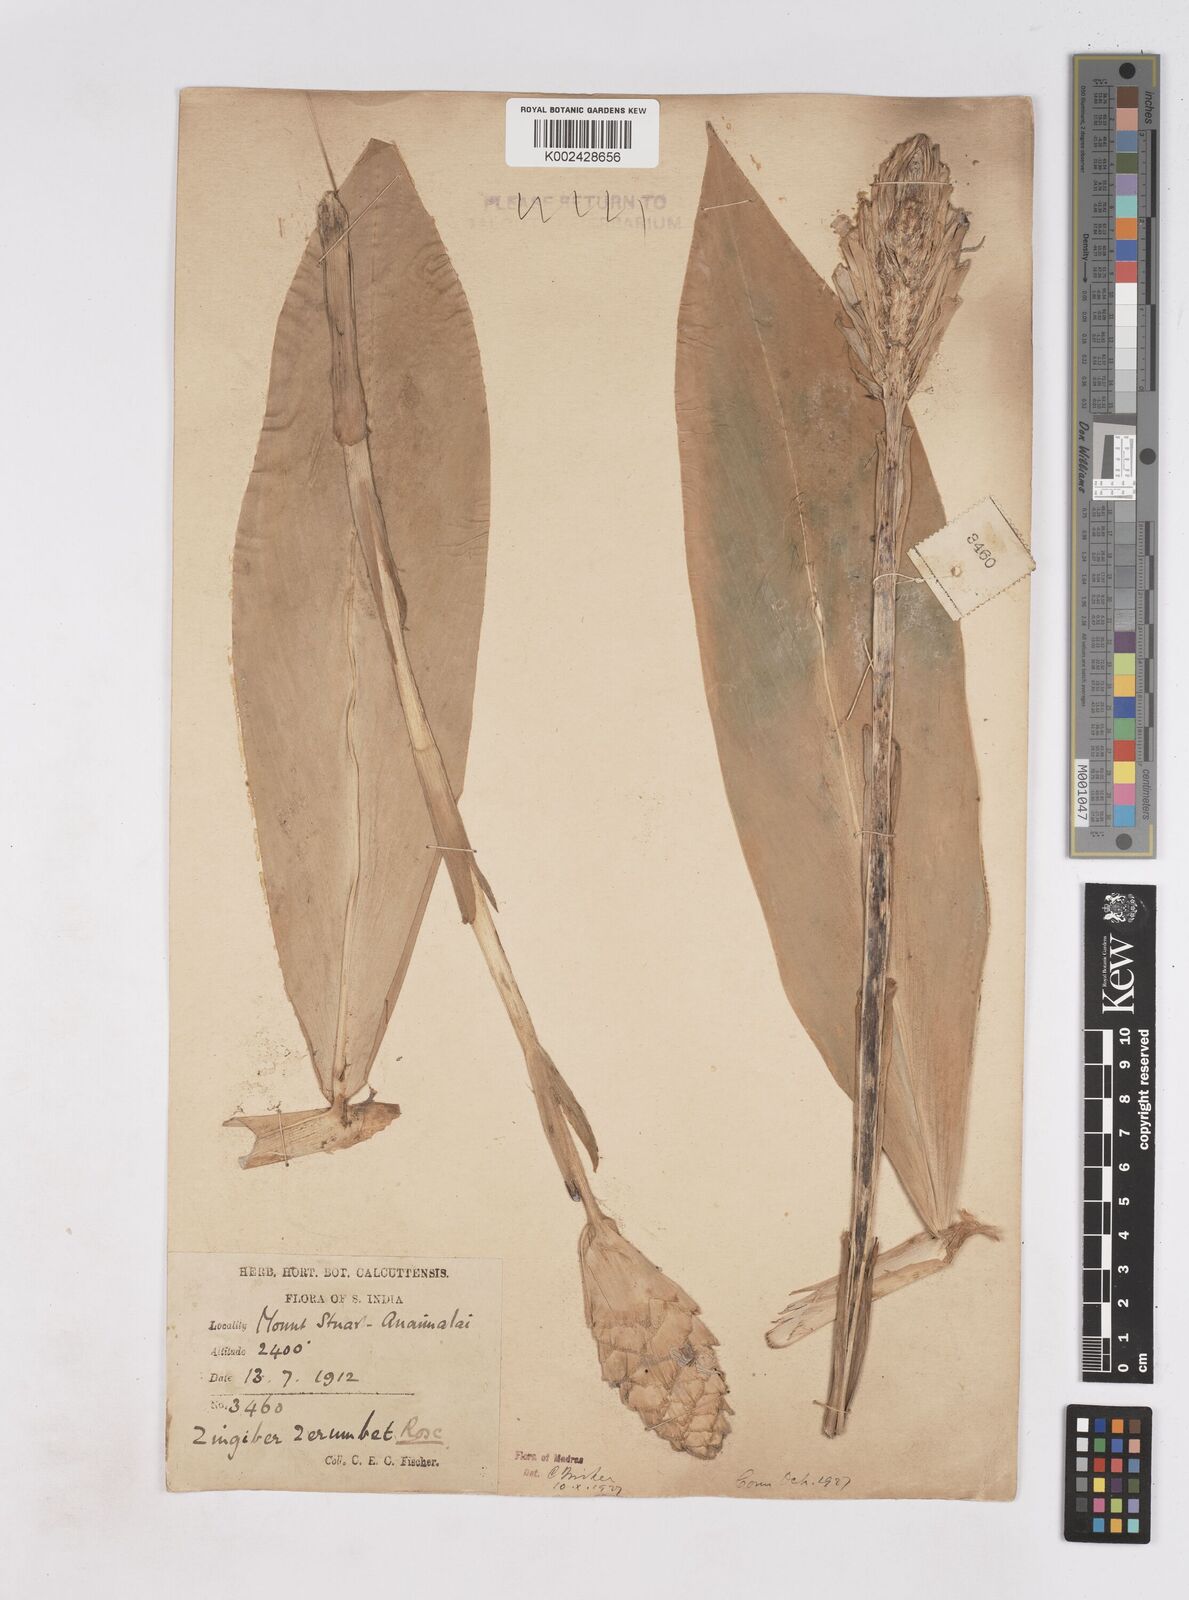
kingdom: Plantae
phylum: Tracheophyta
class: Liliopsida
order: Zingiberales
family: Zingiberaceae
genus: Zingiber
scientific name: Zingiber zerumbet
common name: Bitter ginger
